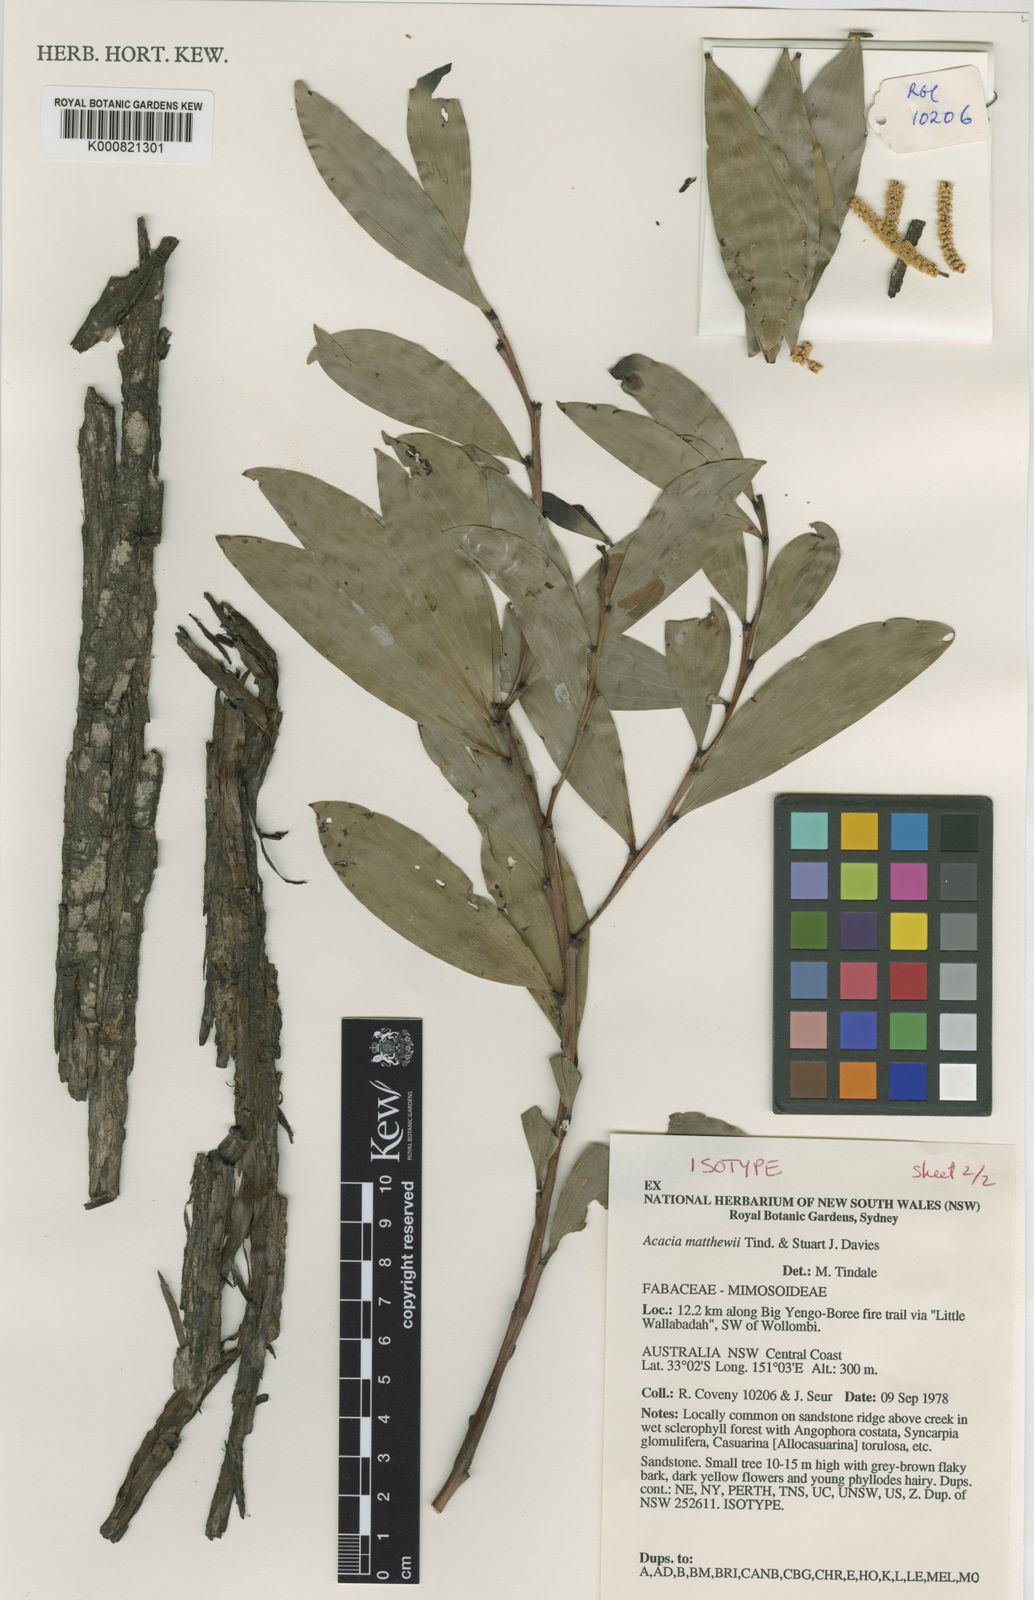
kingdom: Plantae
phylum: Tracheophyta
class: Magnoliopsida
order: Fabales
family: Fabaceae
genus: Acacia
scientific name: Acacia matthewii
